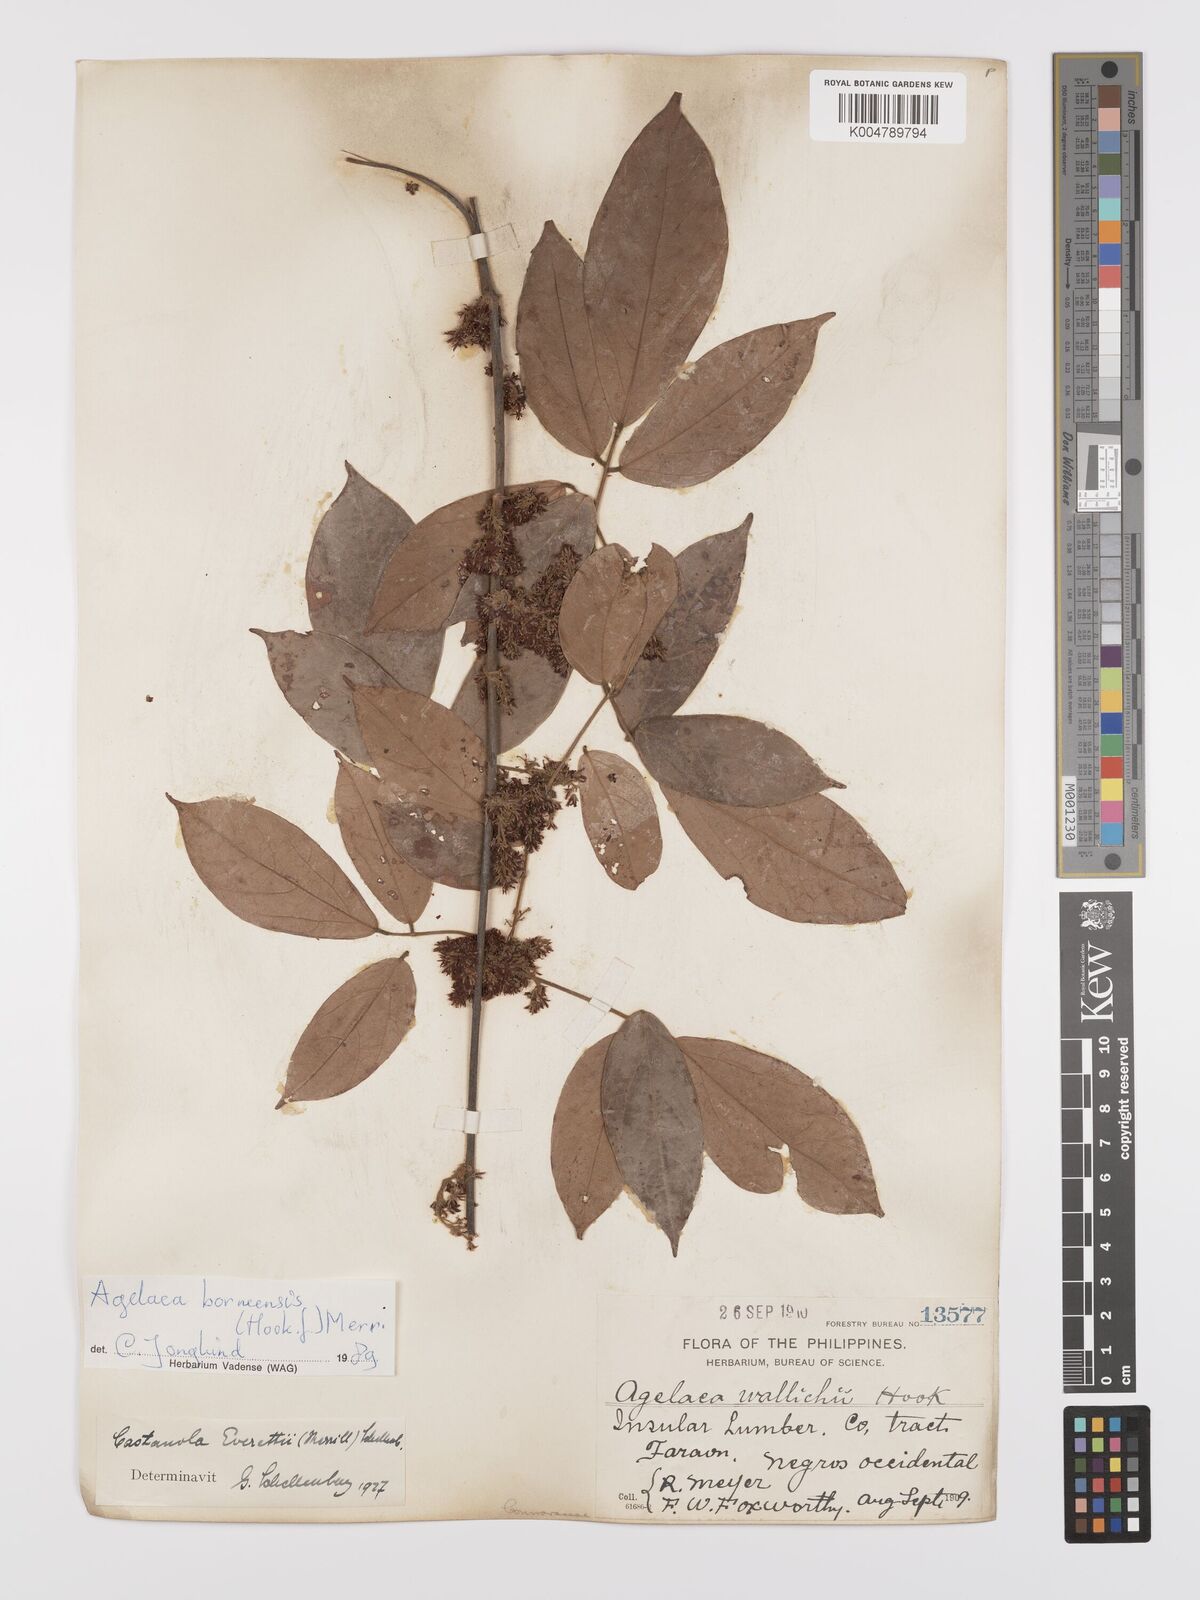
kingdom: Plantae
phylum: Tracheophyta
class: Magnoliopsida
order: Oxalidales
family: Connaraceae
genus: Agelaea
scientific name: Agelaea borneensis
